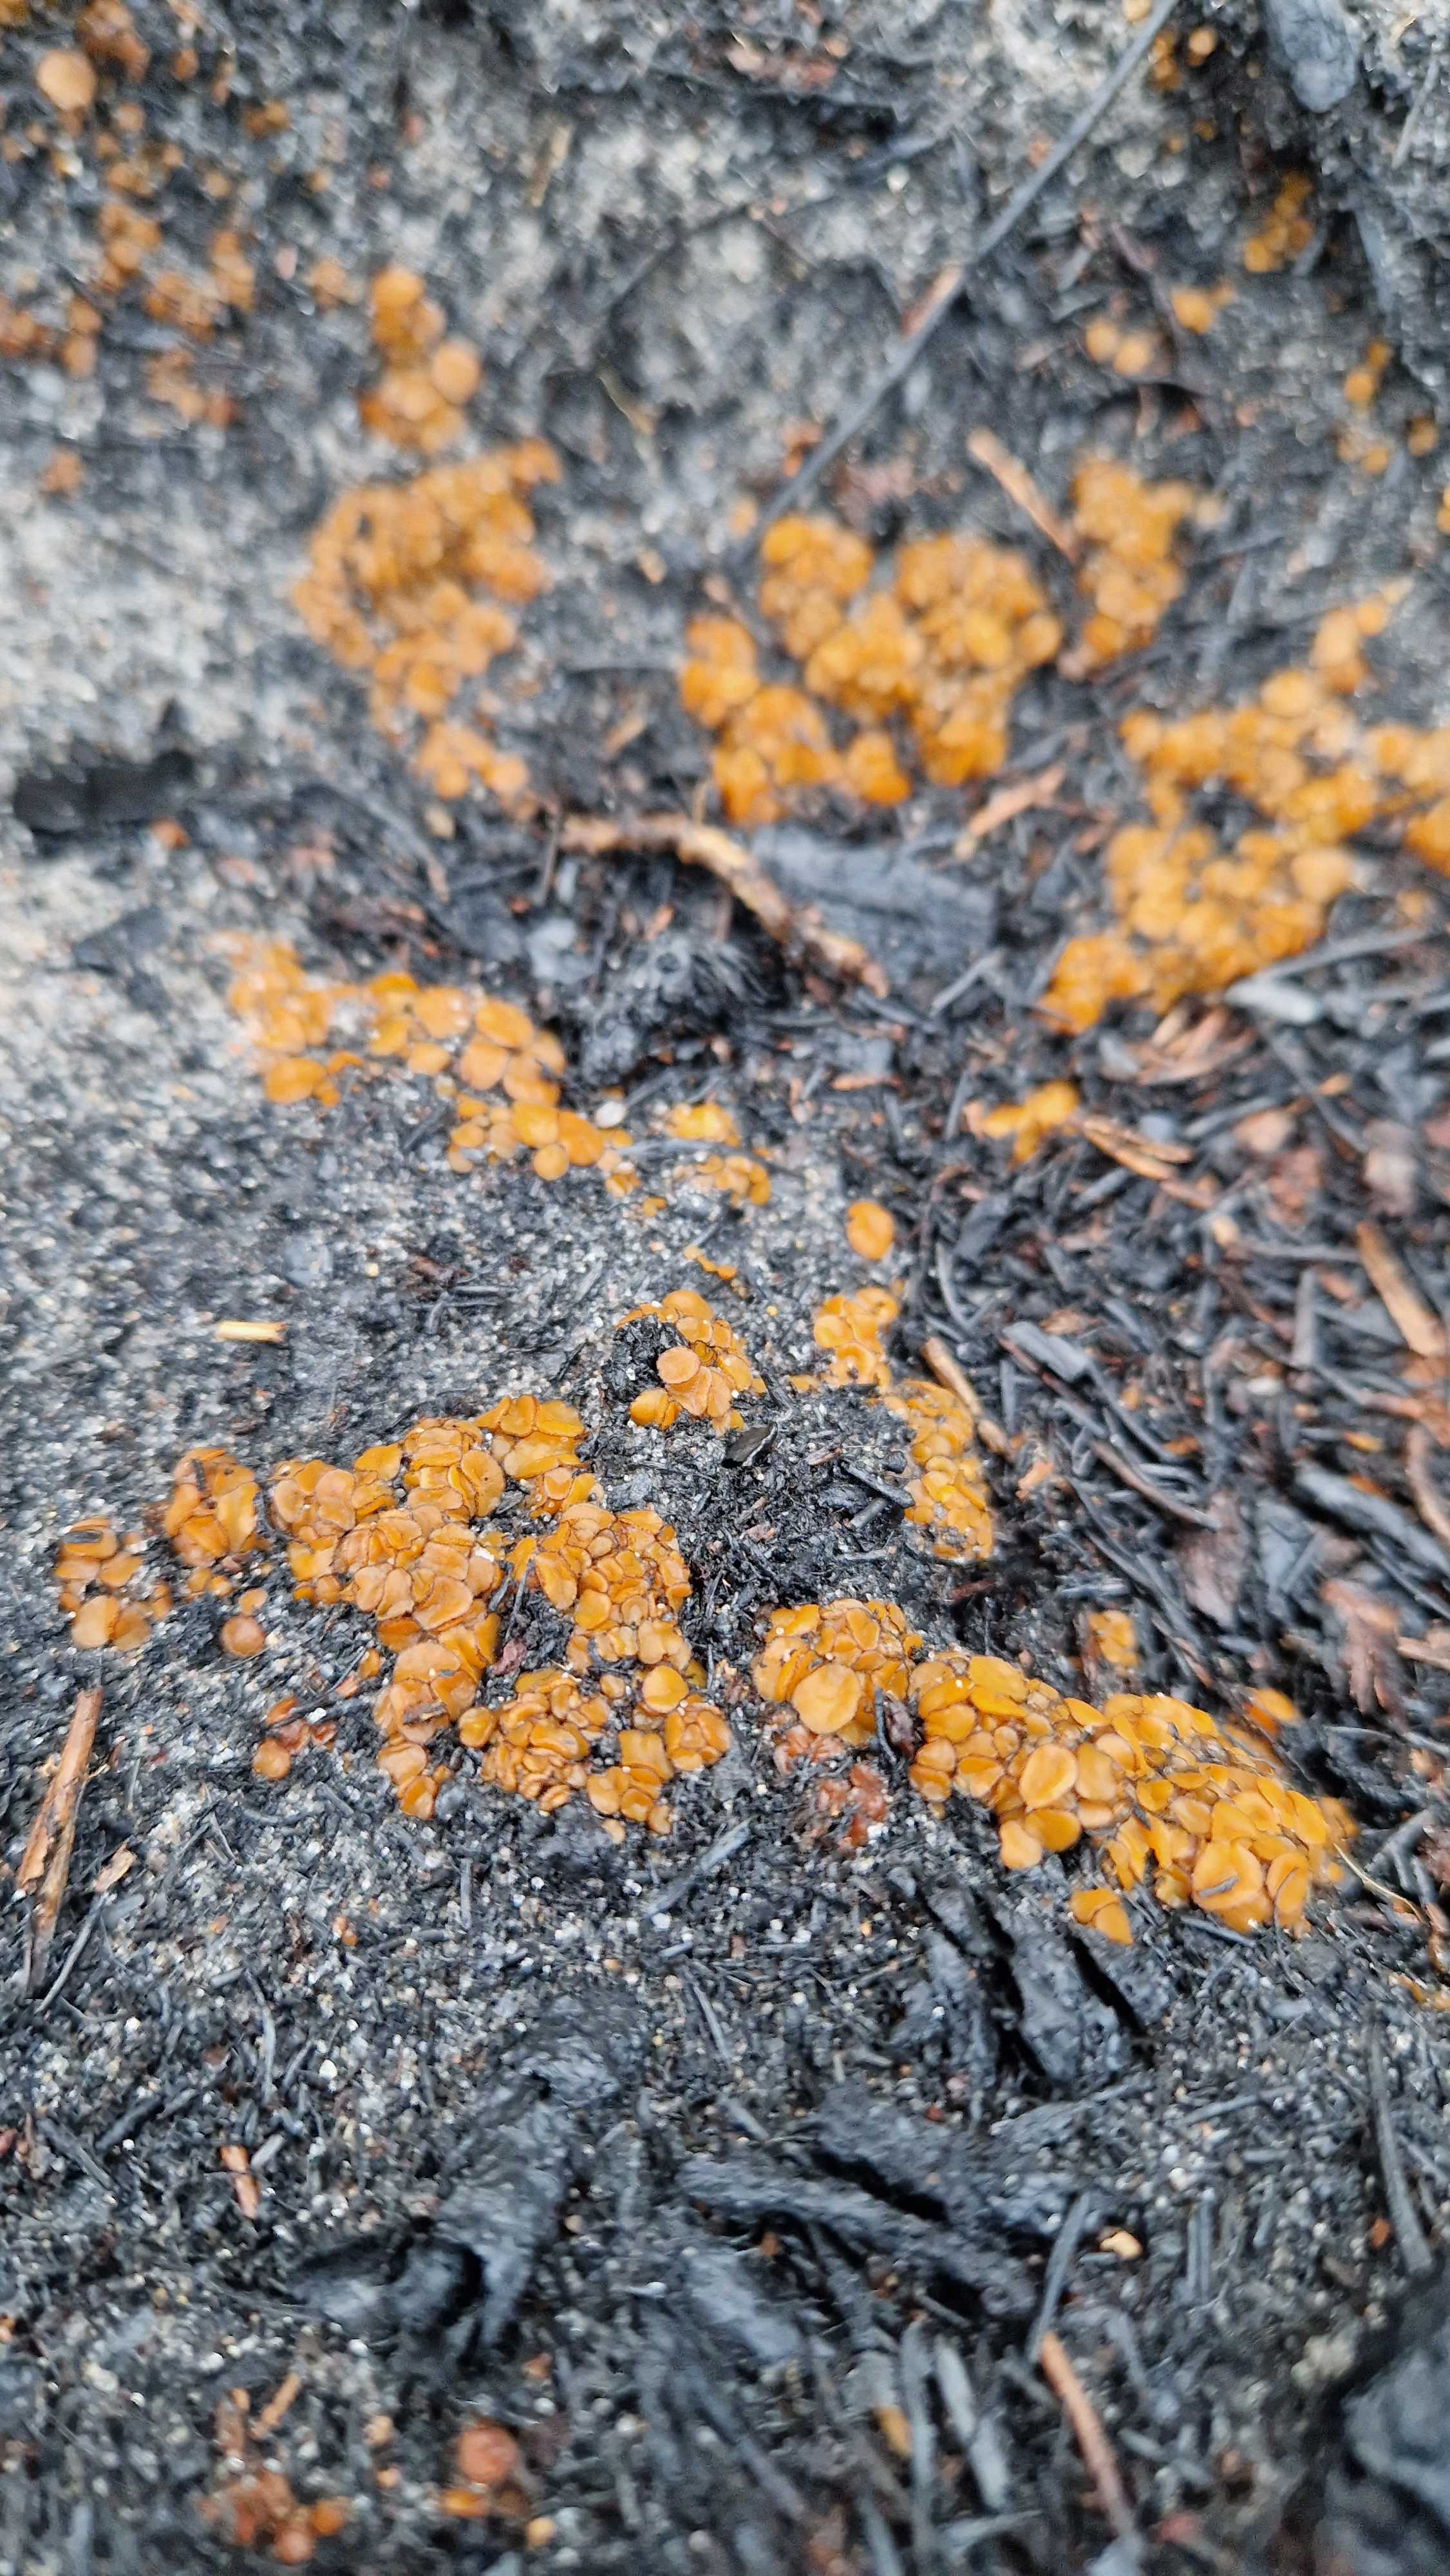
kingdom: Fungi
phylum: Ascomycota
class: Pezizomycetes
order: Pezizales
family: Pyronemataceae
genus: Anthracobia
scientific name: Anthracobia
